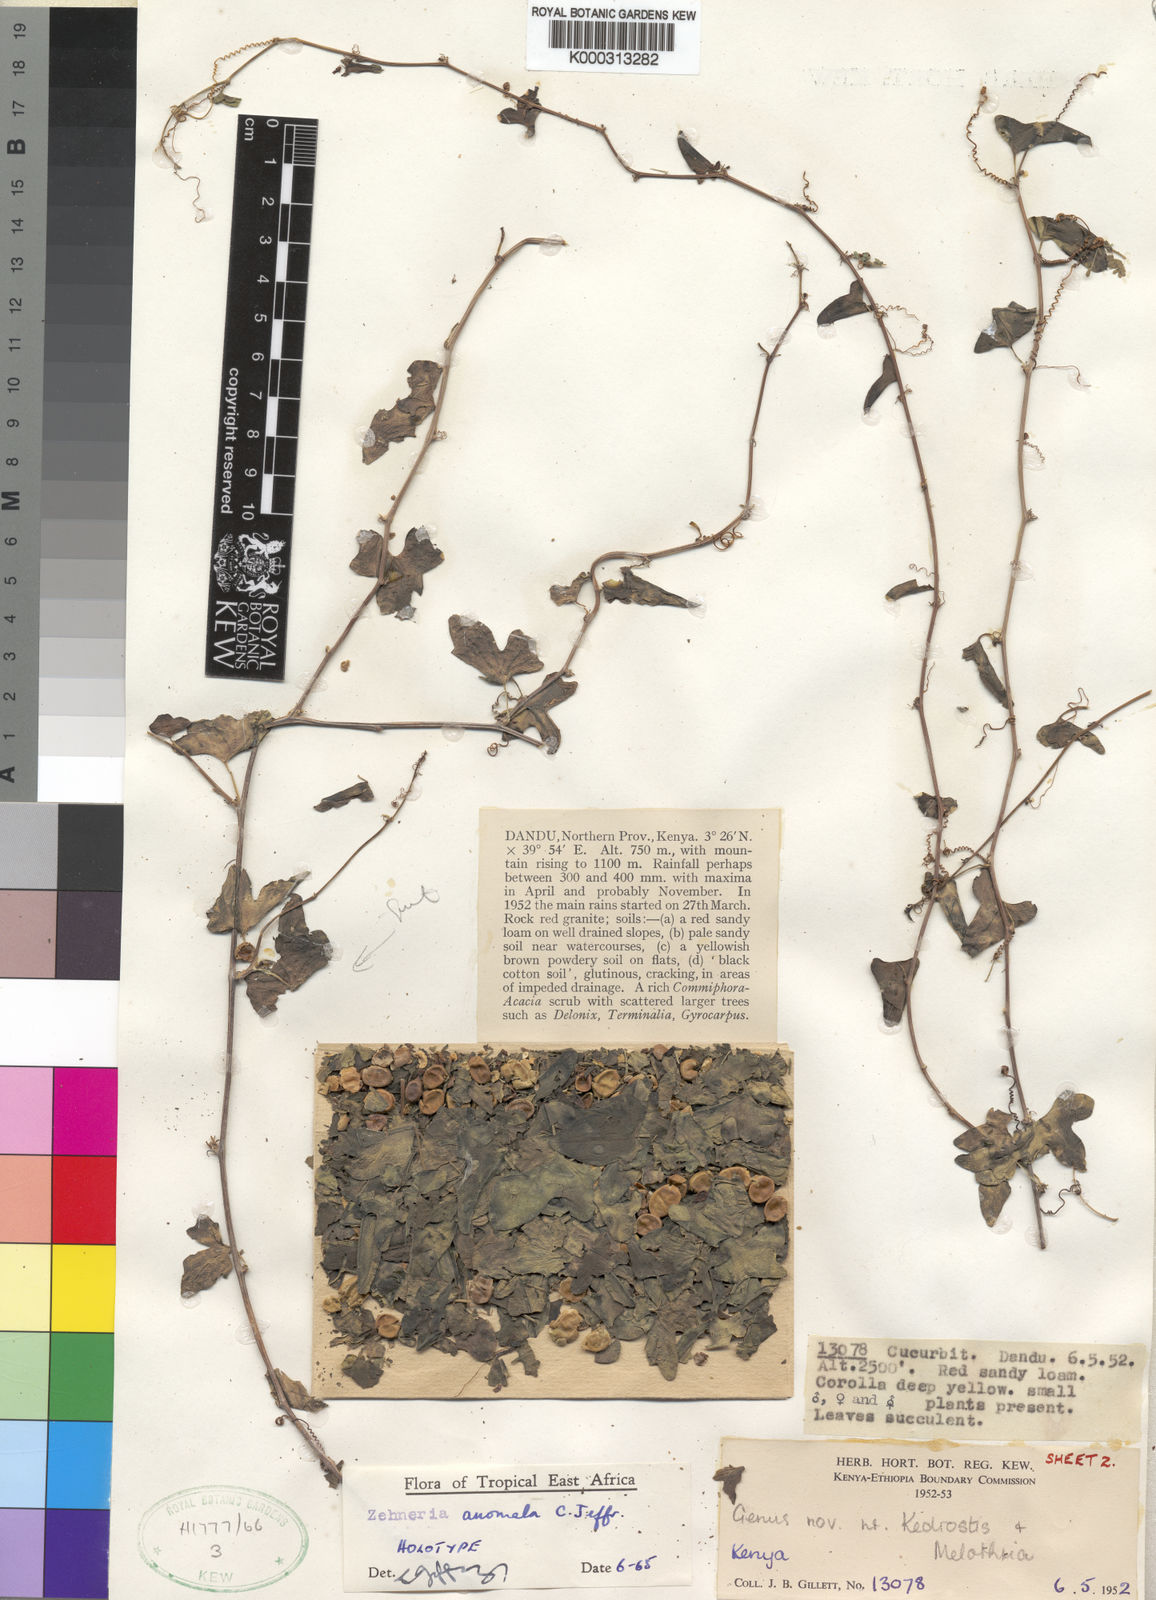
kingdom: Plantae
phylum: Tracheophyta
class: Magnoliopsida
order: Cucurbitales
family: Cucurbitaceae
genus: Zehneria
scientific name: Zehneria anomala
